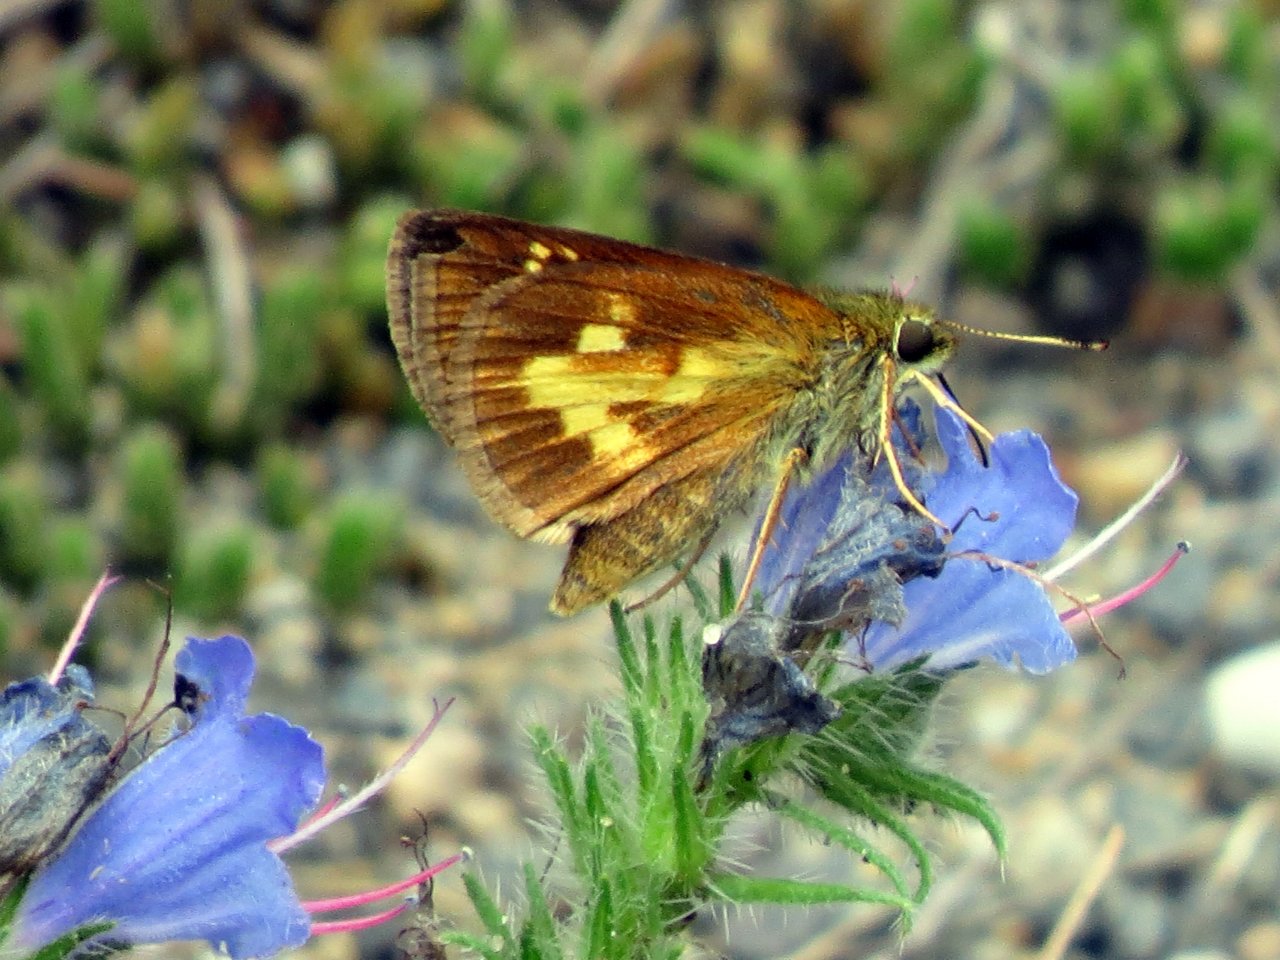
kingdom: Animalia
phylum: Arthropoda
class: Insecta
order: Lepidoptera
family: Hesperiidae
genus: Poanes
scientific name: Poanes massasoit
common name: Mulberry Wing
